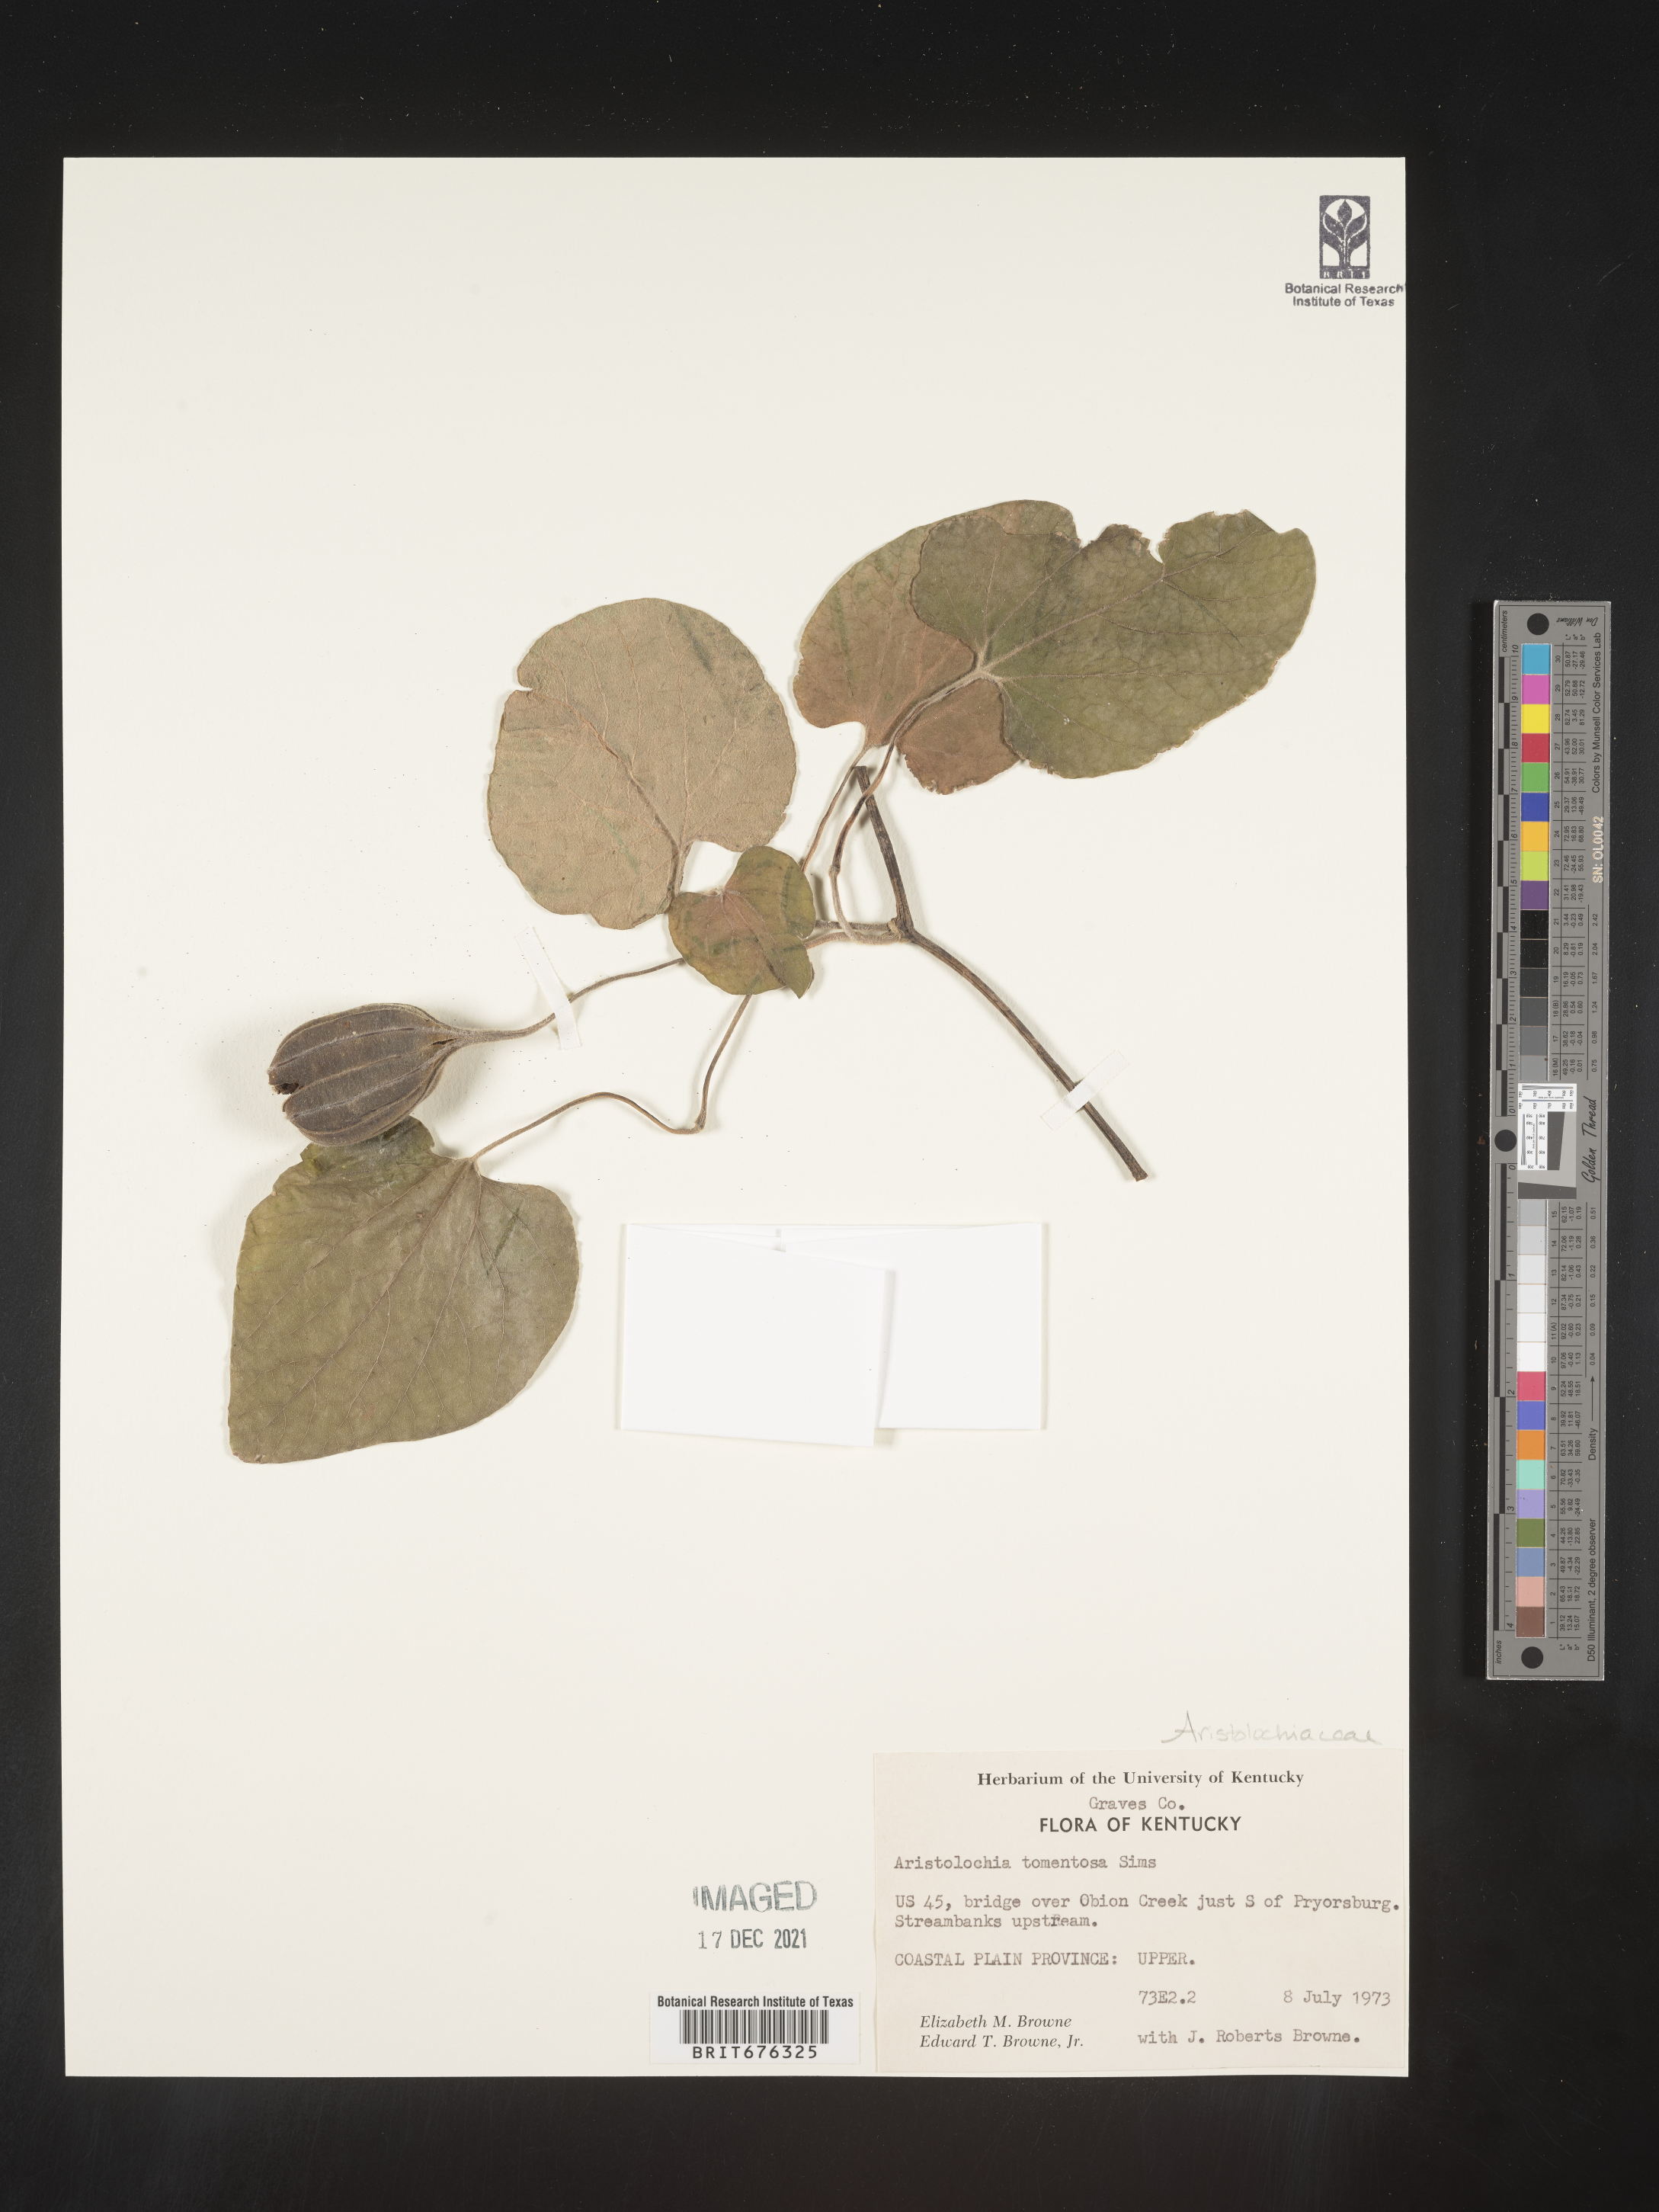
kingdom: Plantae
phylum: Tracheophyta
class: Magnoliopsida
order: Piperales
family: Aristolochiaceae
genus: Isotrema
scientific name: Isotrema tomentosum
